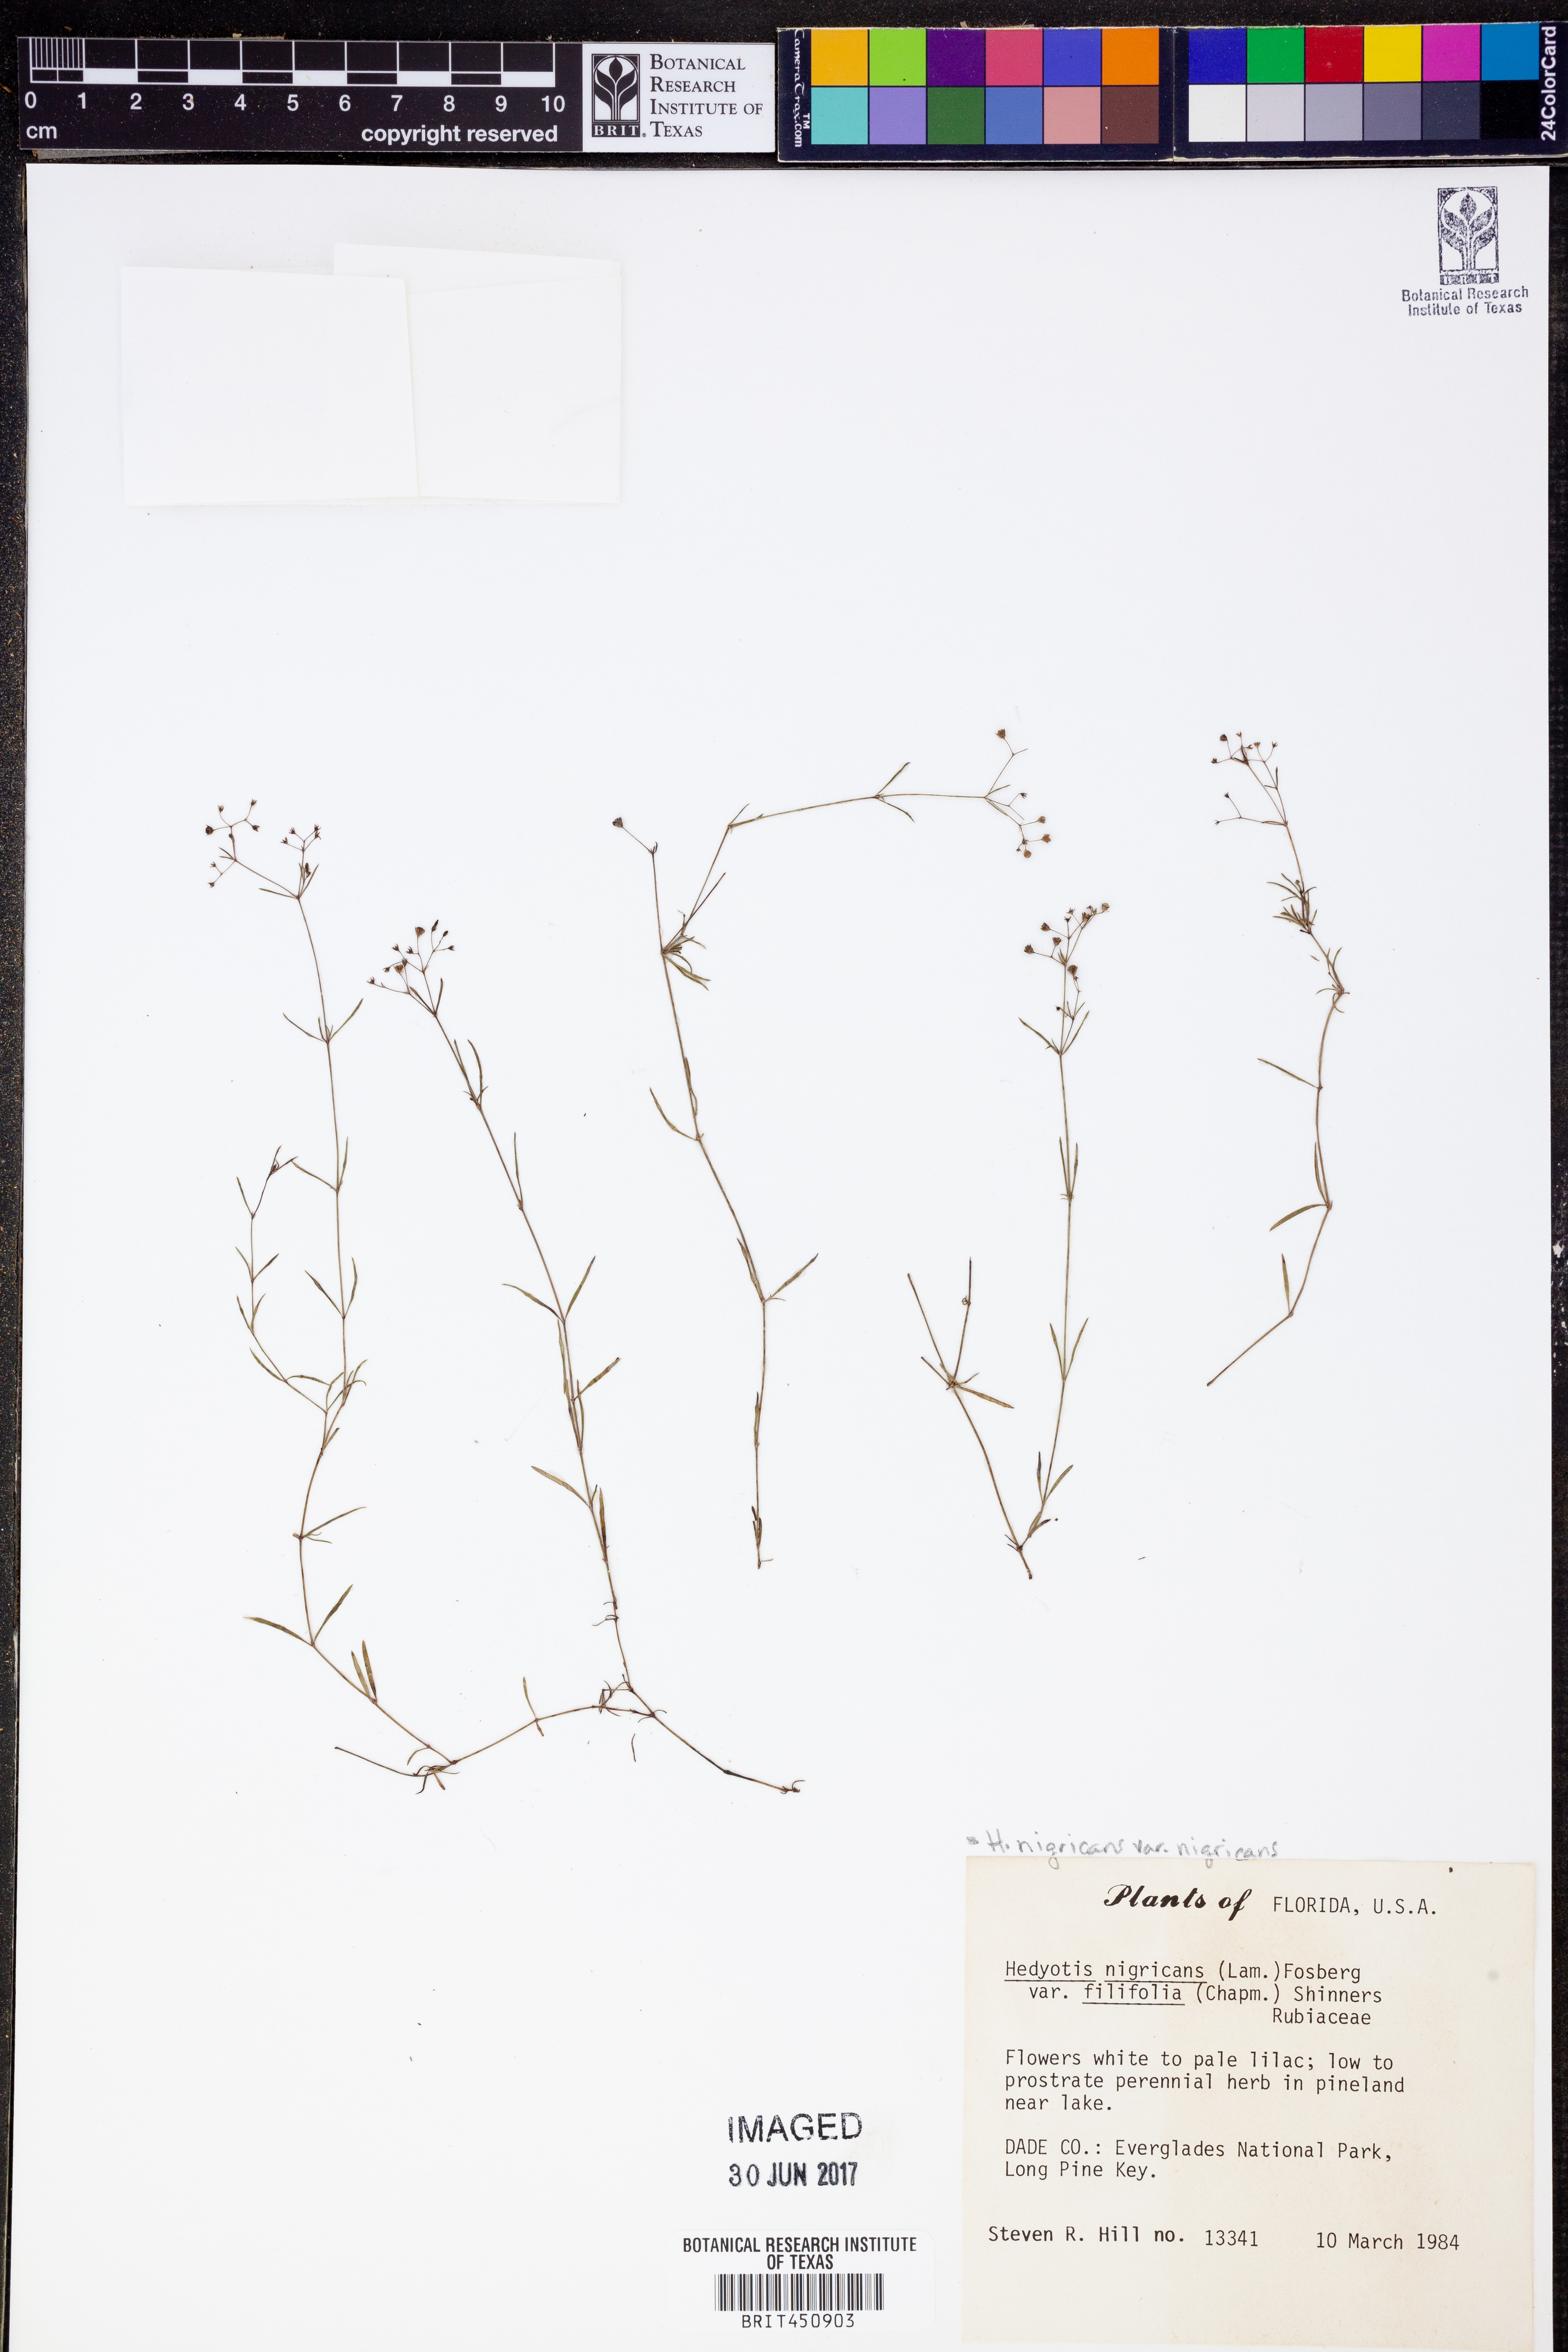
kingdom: Plantae
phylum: Tracheophyta
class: Magnoliopsida
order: Gentianales
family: Rubiaceae
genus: Stenaria
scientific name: Stenaria nigricans
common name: Diamondflowers
